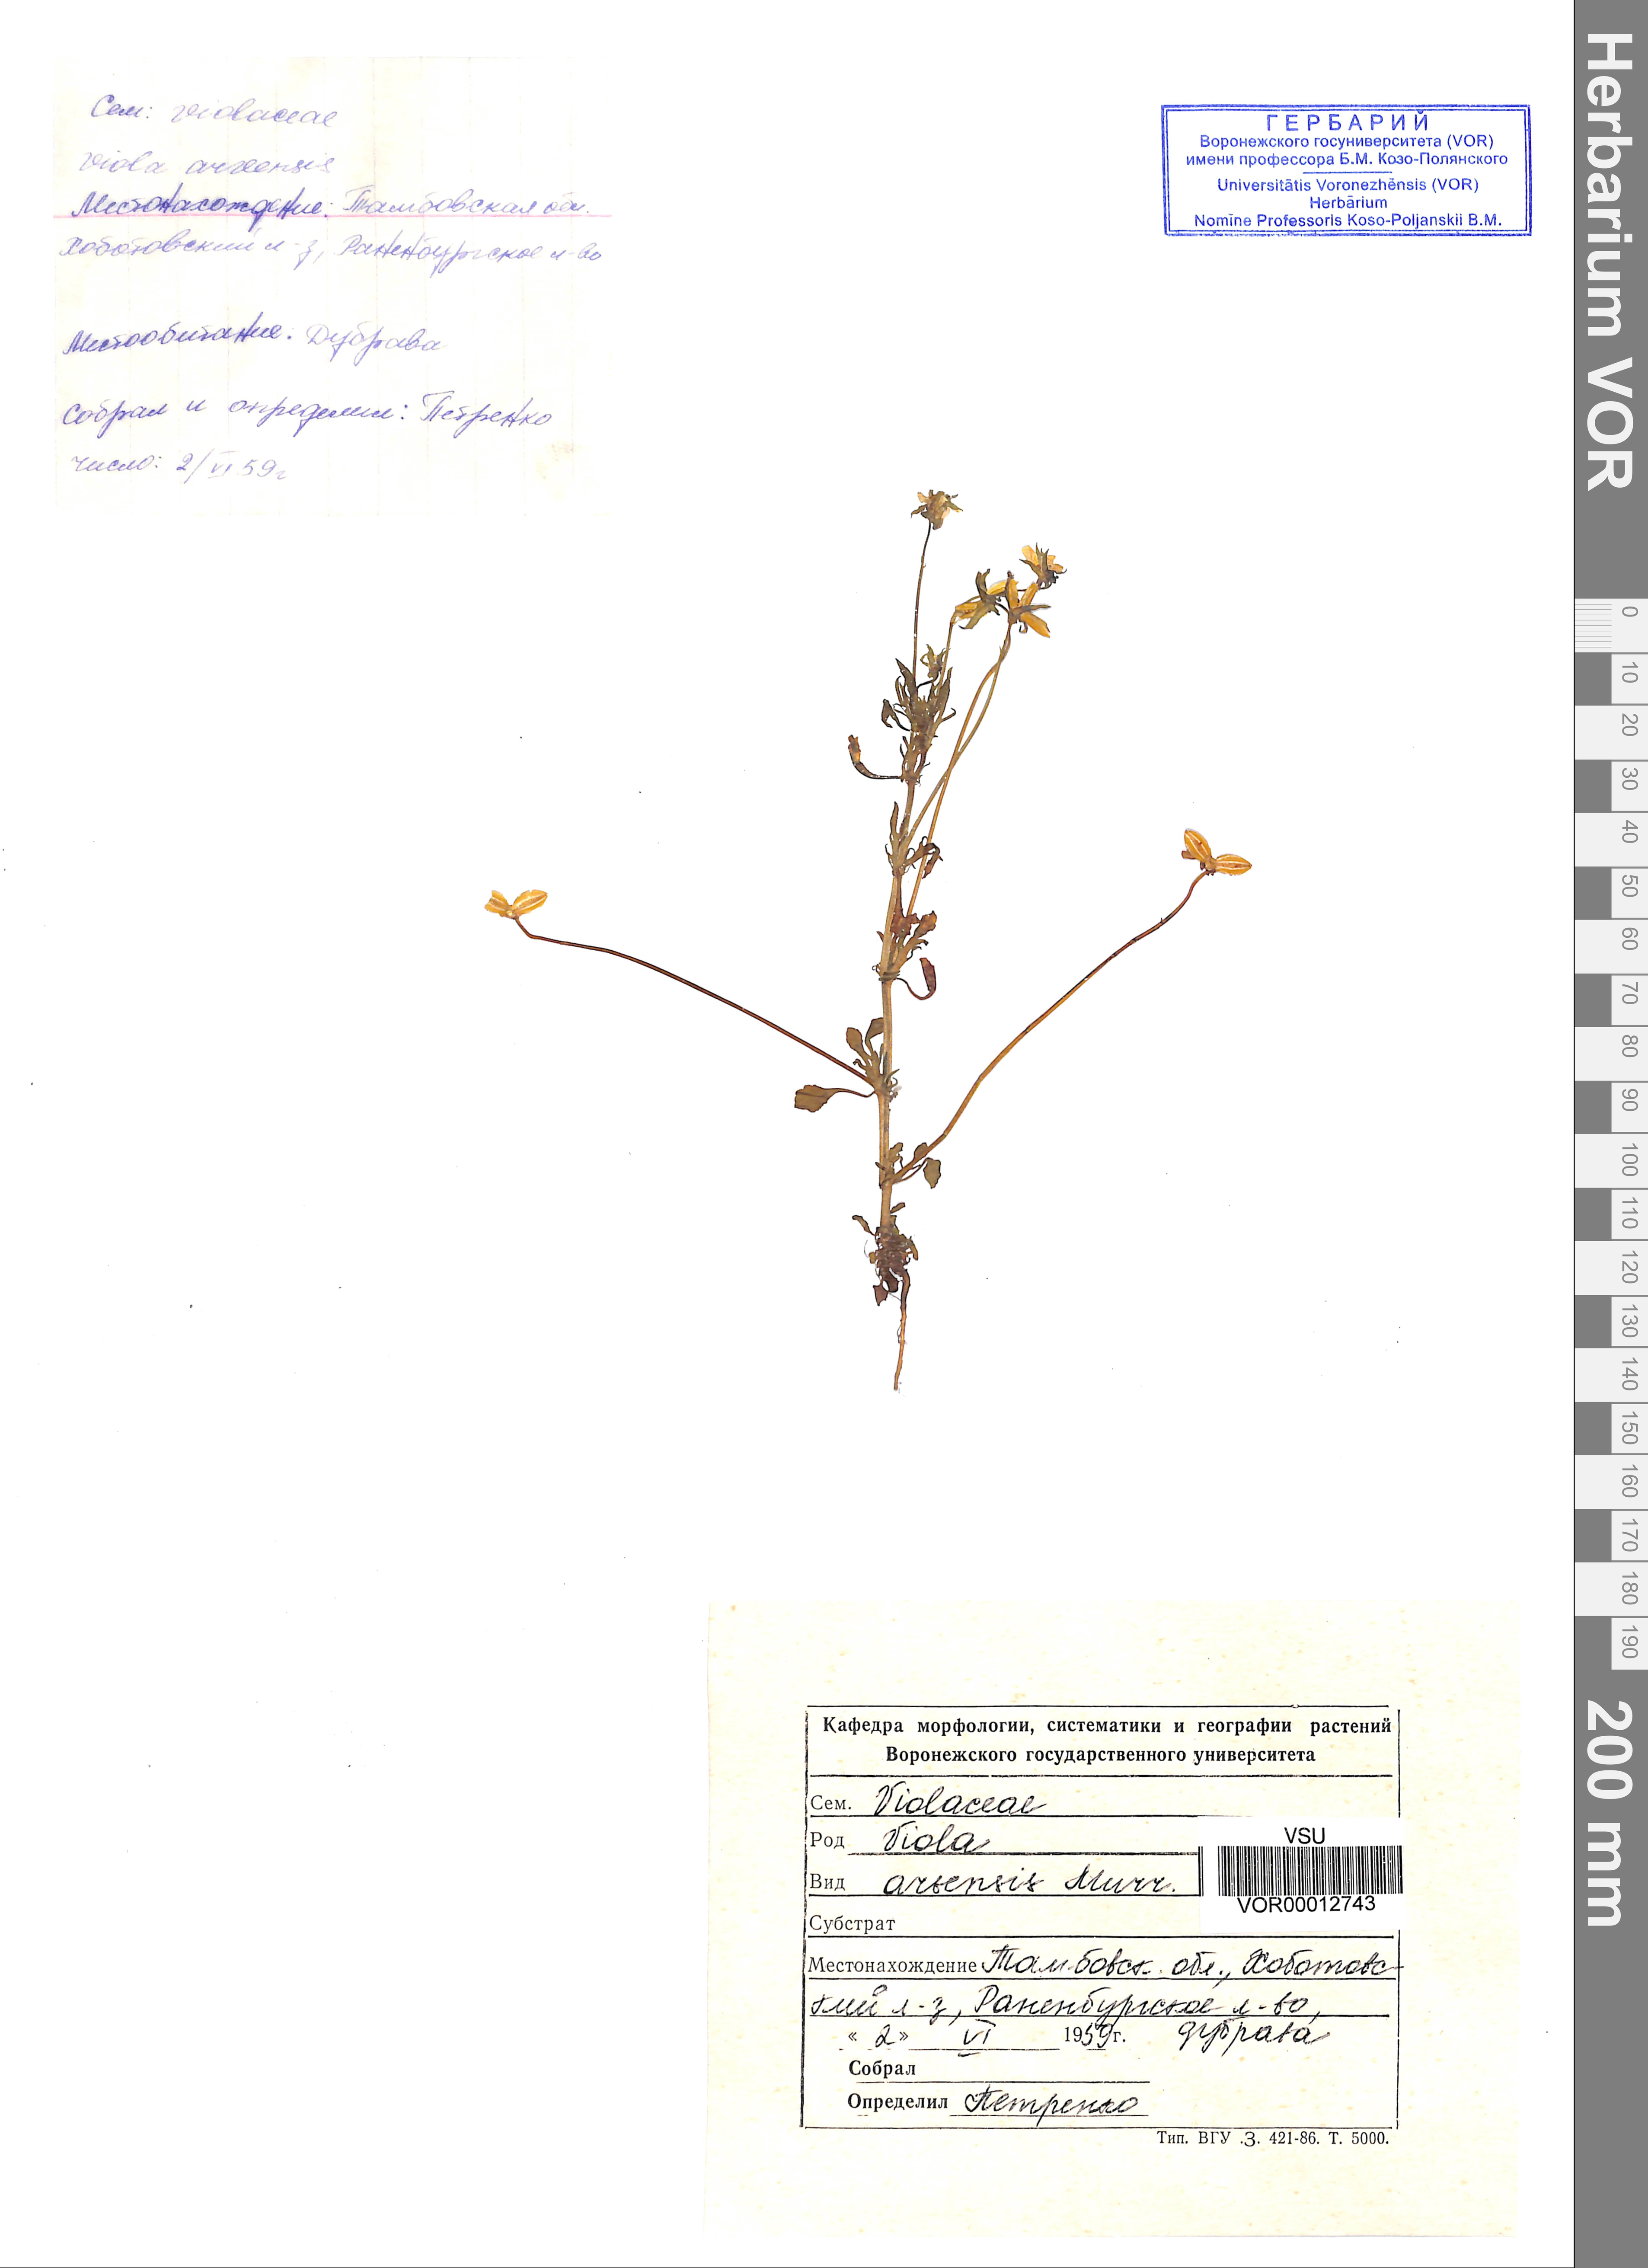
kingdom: Plantae
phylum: Tracheophyta
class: Magnoliopsida
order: Malpighiales
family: Violaceae
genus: Viola
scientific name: Viola arvensis
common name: Field pansy
